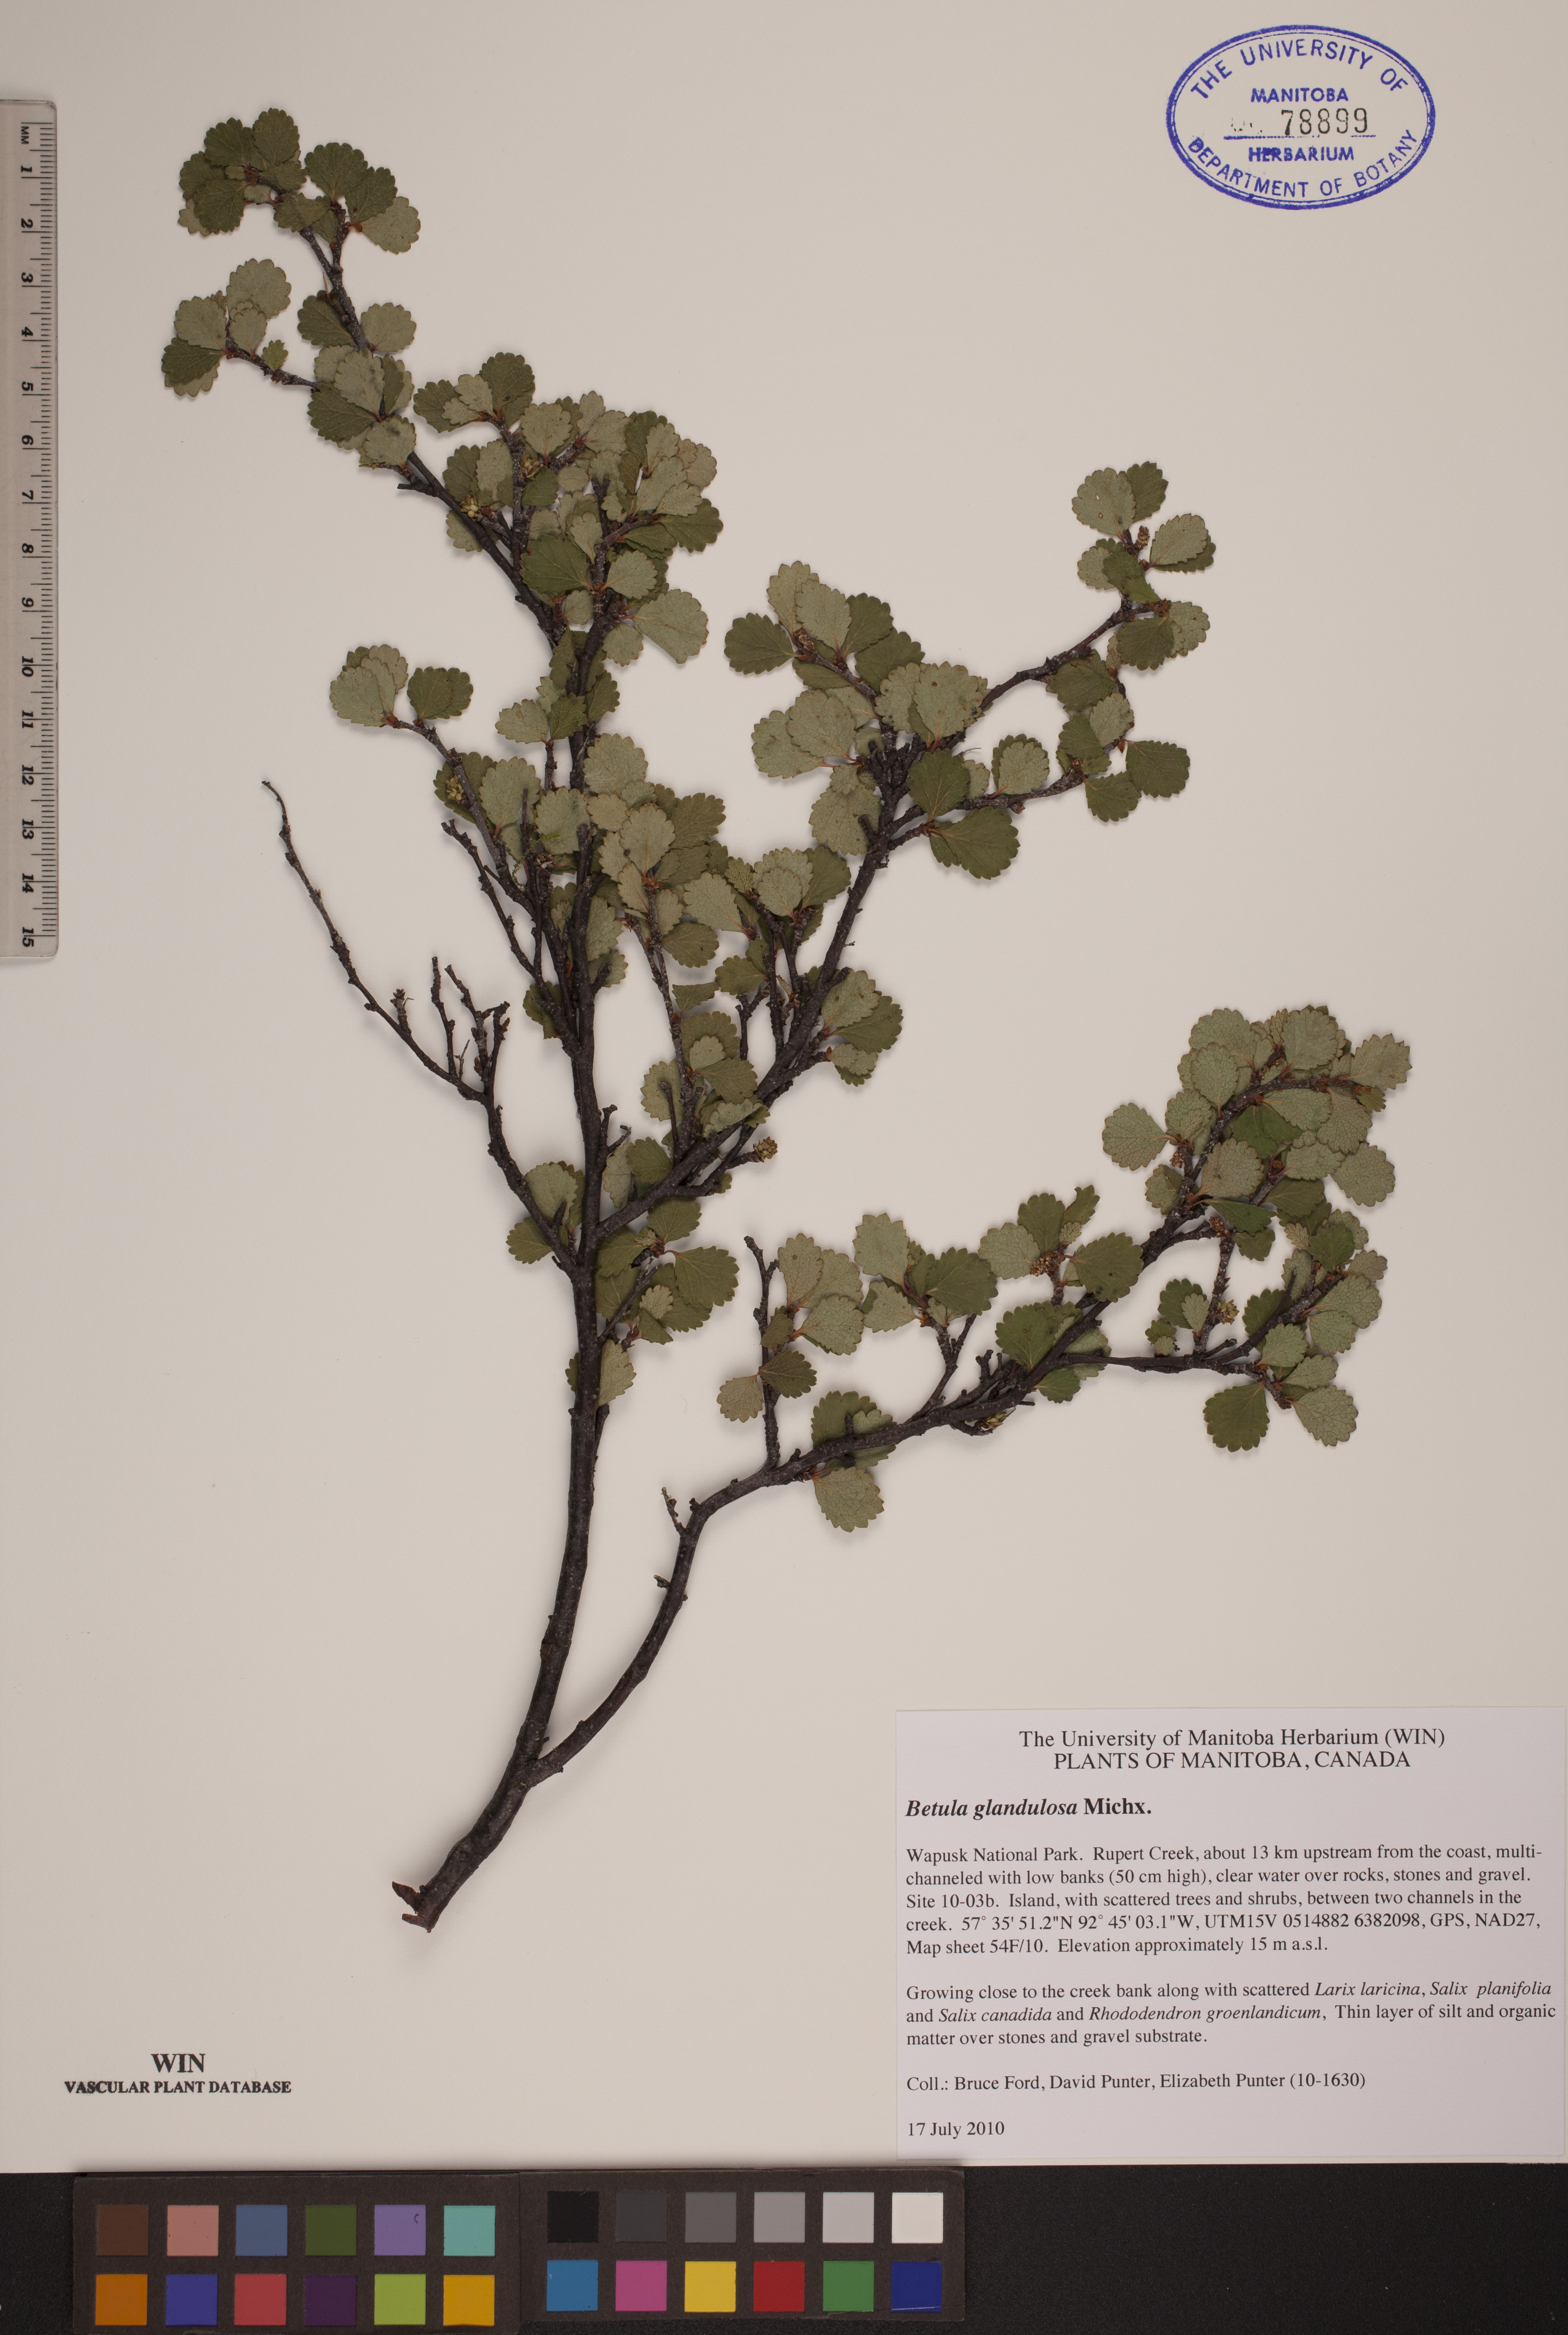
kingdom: Plantae
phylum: Tracheophyta
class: Magnoliopsida
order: Fagales
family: Betulaceae
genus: Betula
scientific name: Betula glandulosa
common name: Dwarf birch
